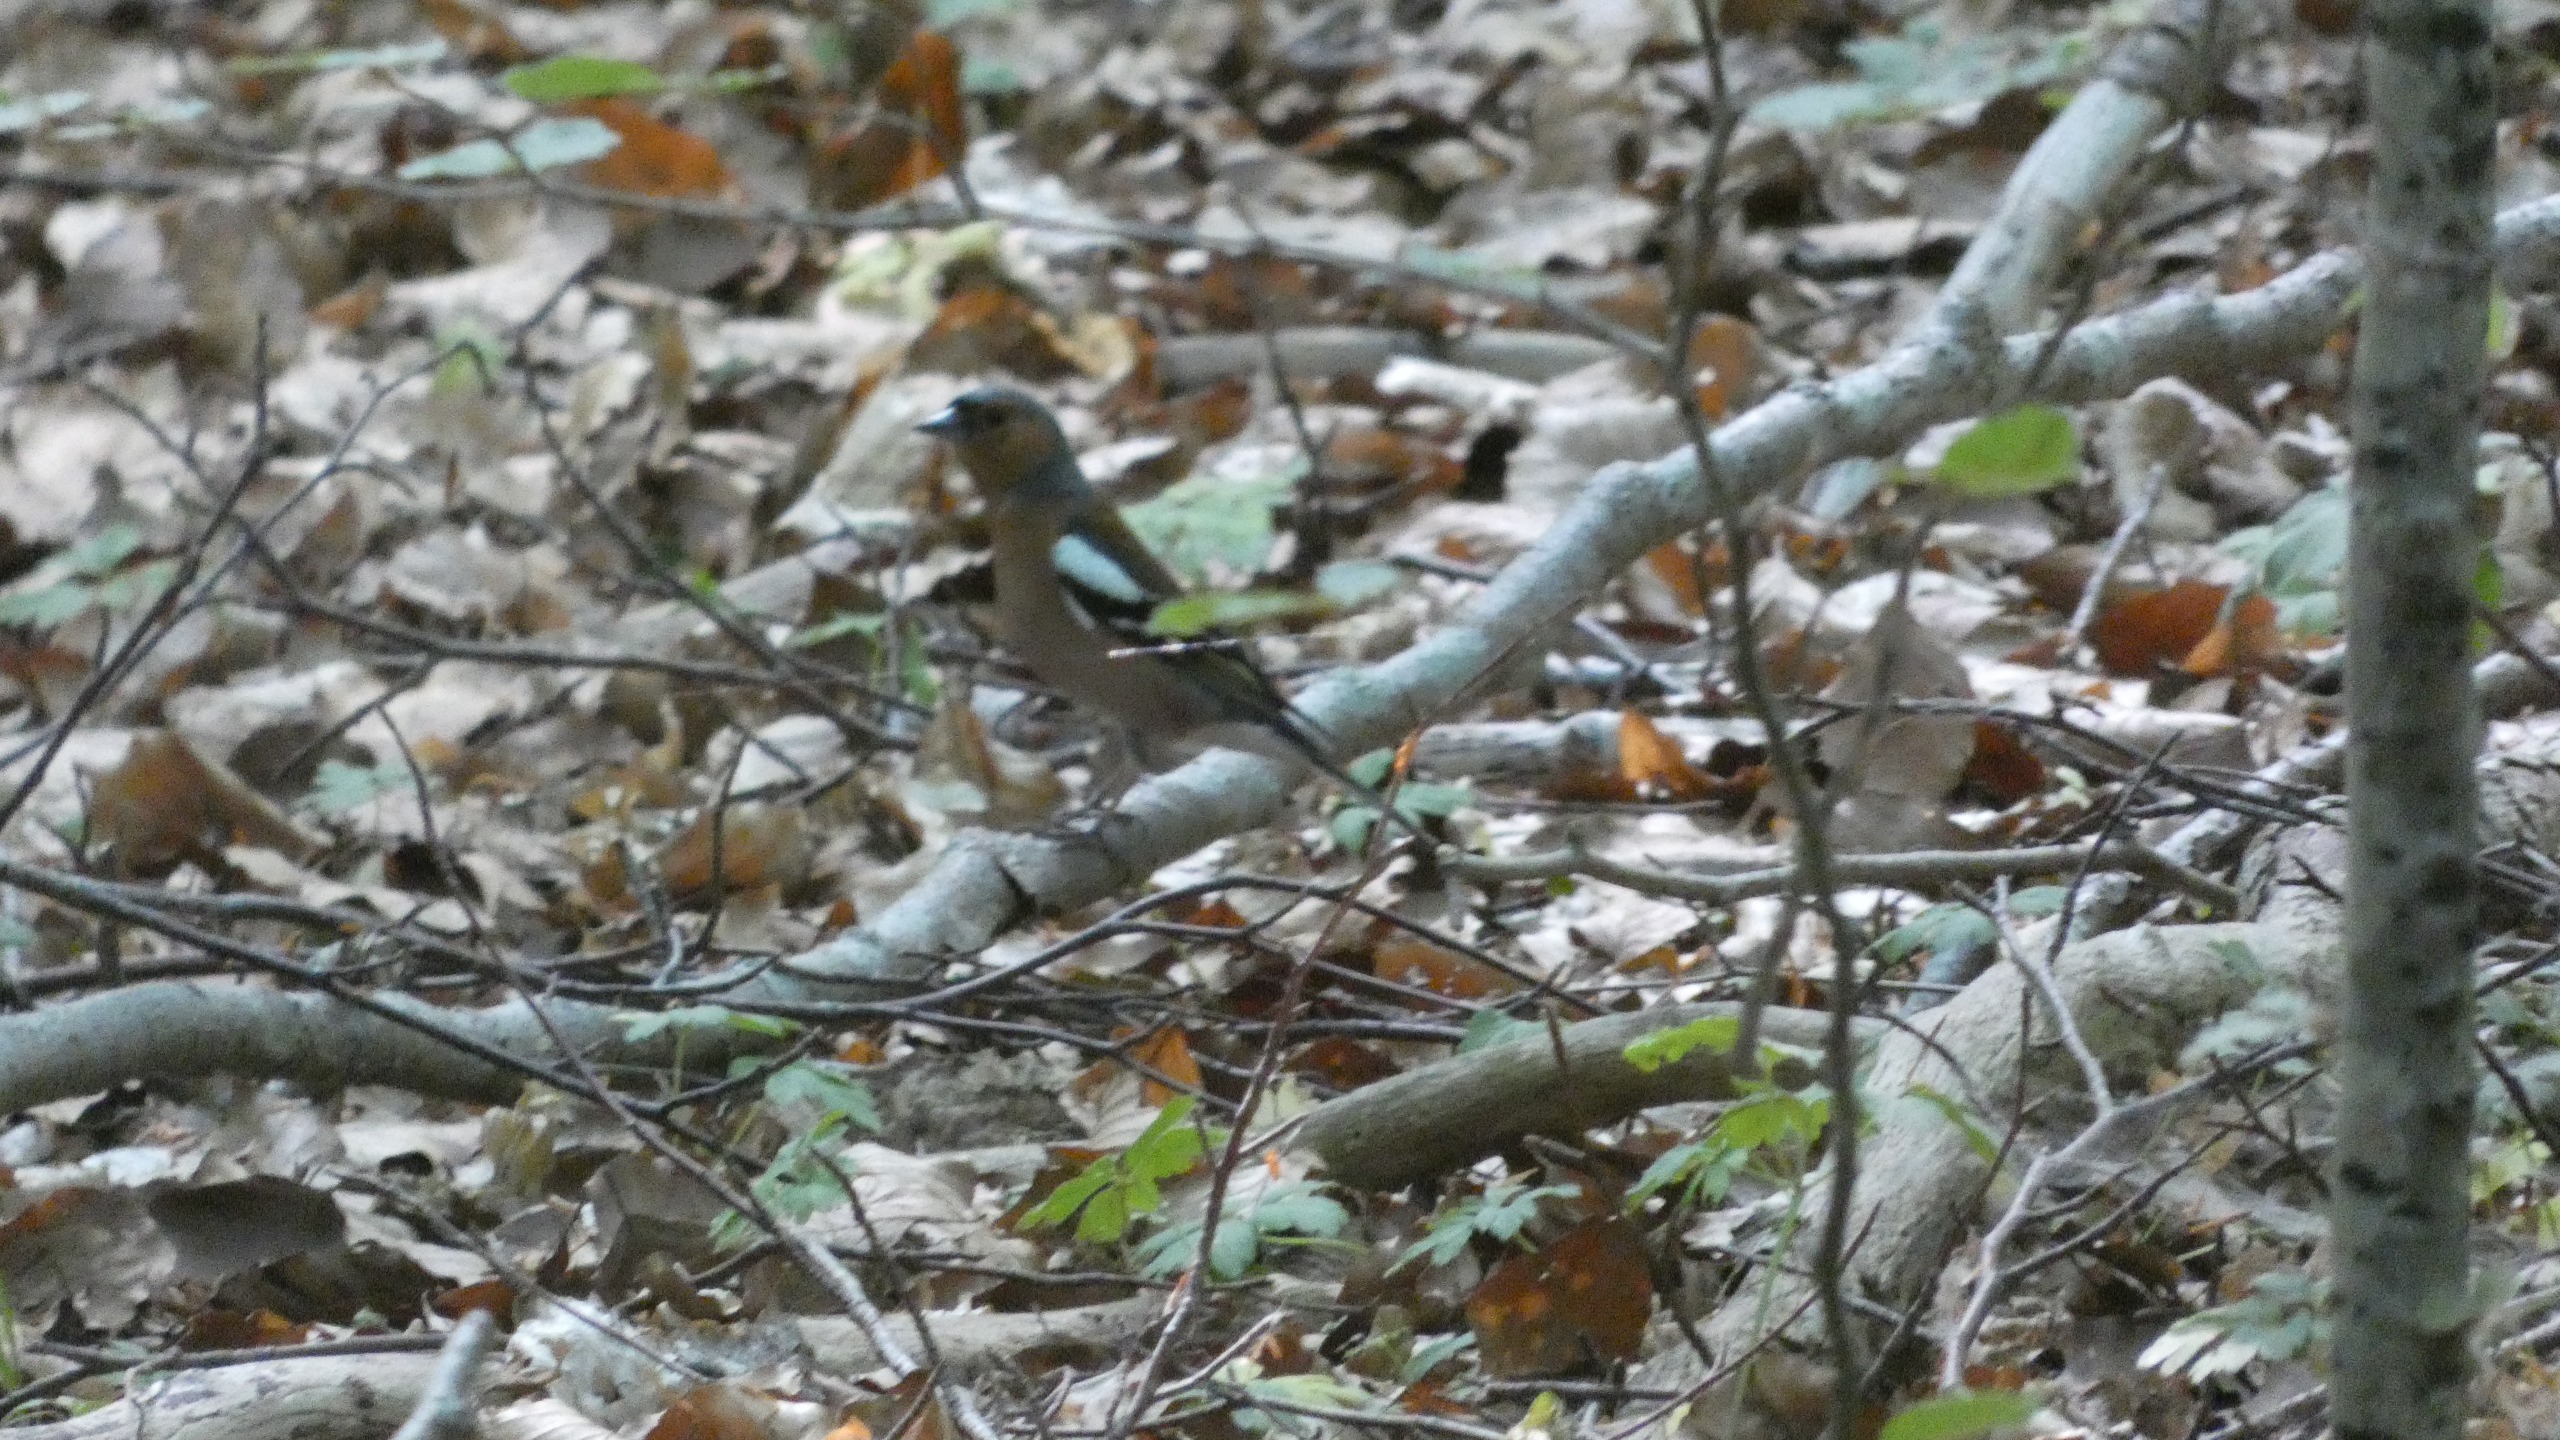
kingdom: Animalia
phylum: Chordata
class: Aves
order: Passeriformes
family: Fringillidae
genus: Fringilla
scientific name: Fringilla coelebs
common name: Bogfinke
